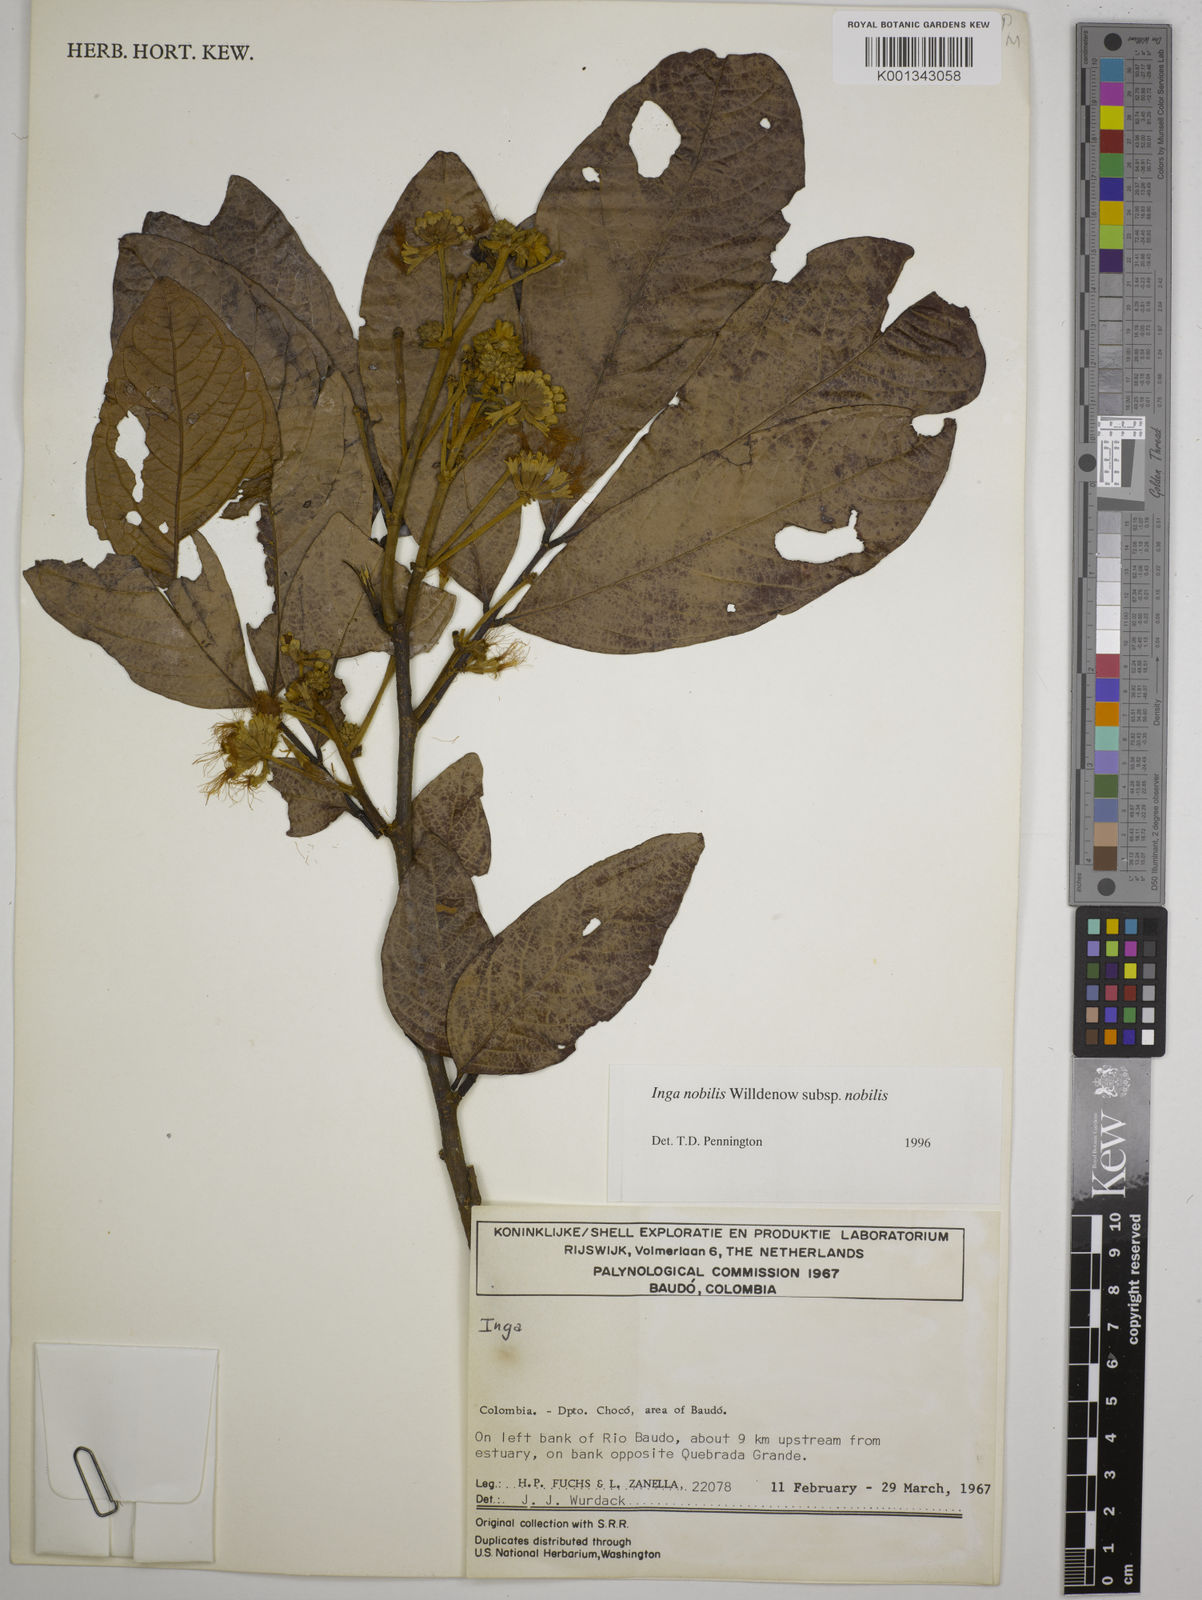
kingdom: Plantae
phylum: Tracheophyta
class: Magnoliopsida
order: Fabales
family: Fabaceae
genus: Inga
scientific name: Inga nobilis
